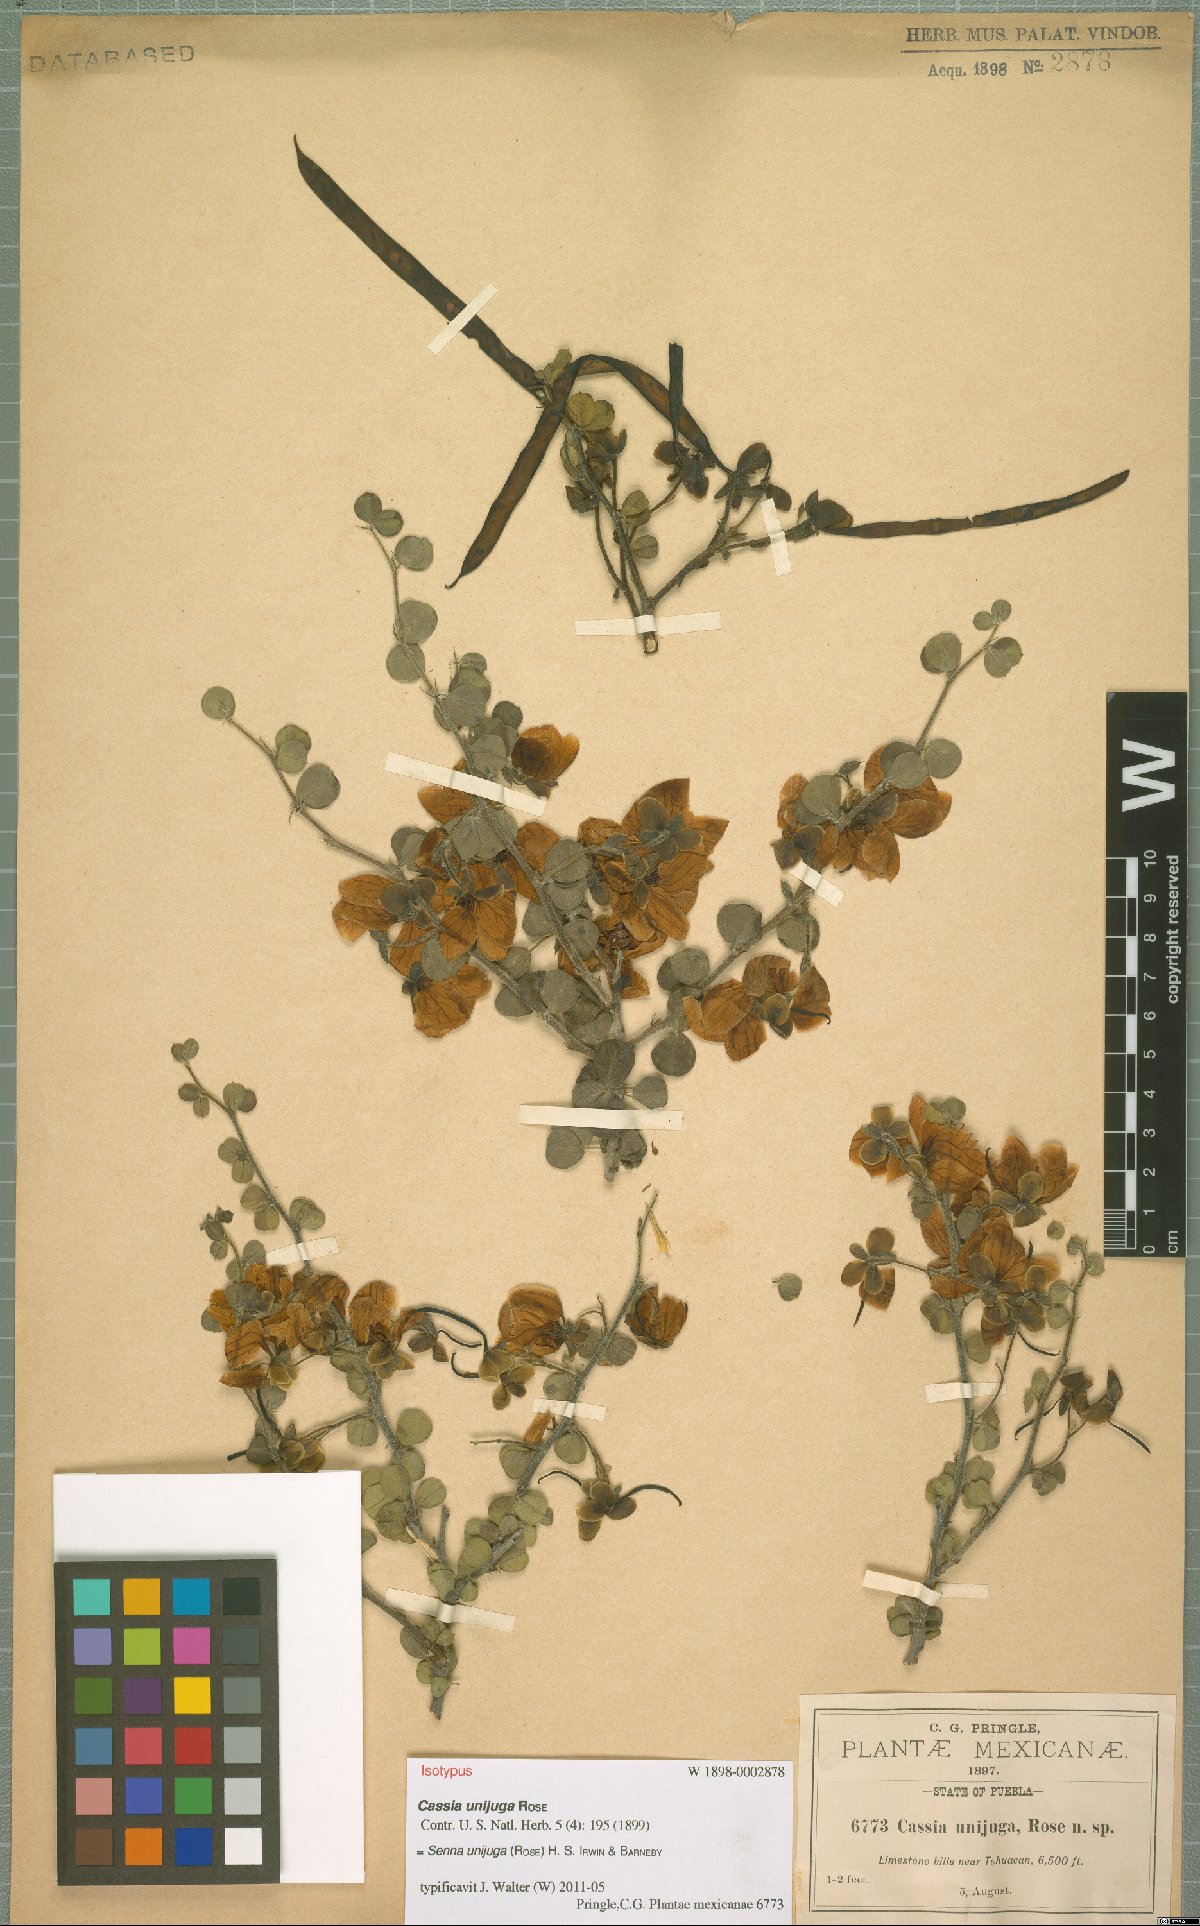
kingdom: Plantae
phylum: Tracheophyta
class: Magnoliopsida
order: Fabales
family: Fabaceae
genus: Senna
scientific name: Senna unijuga
